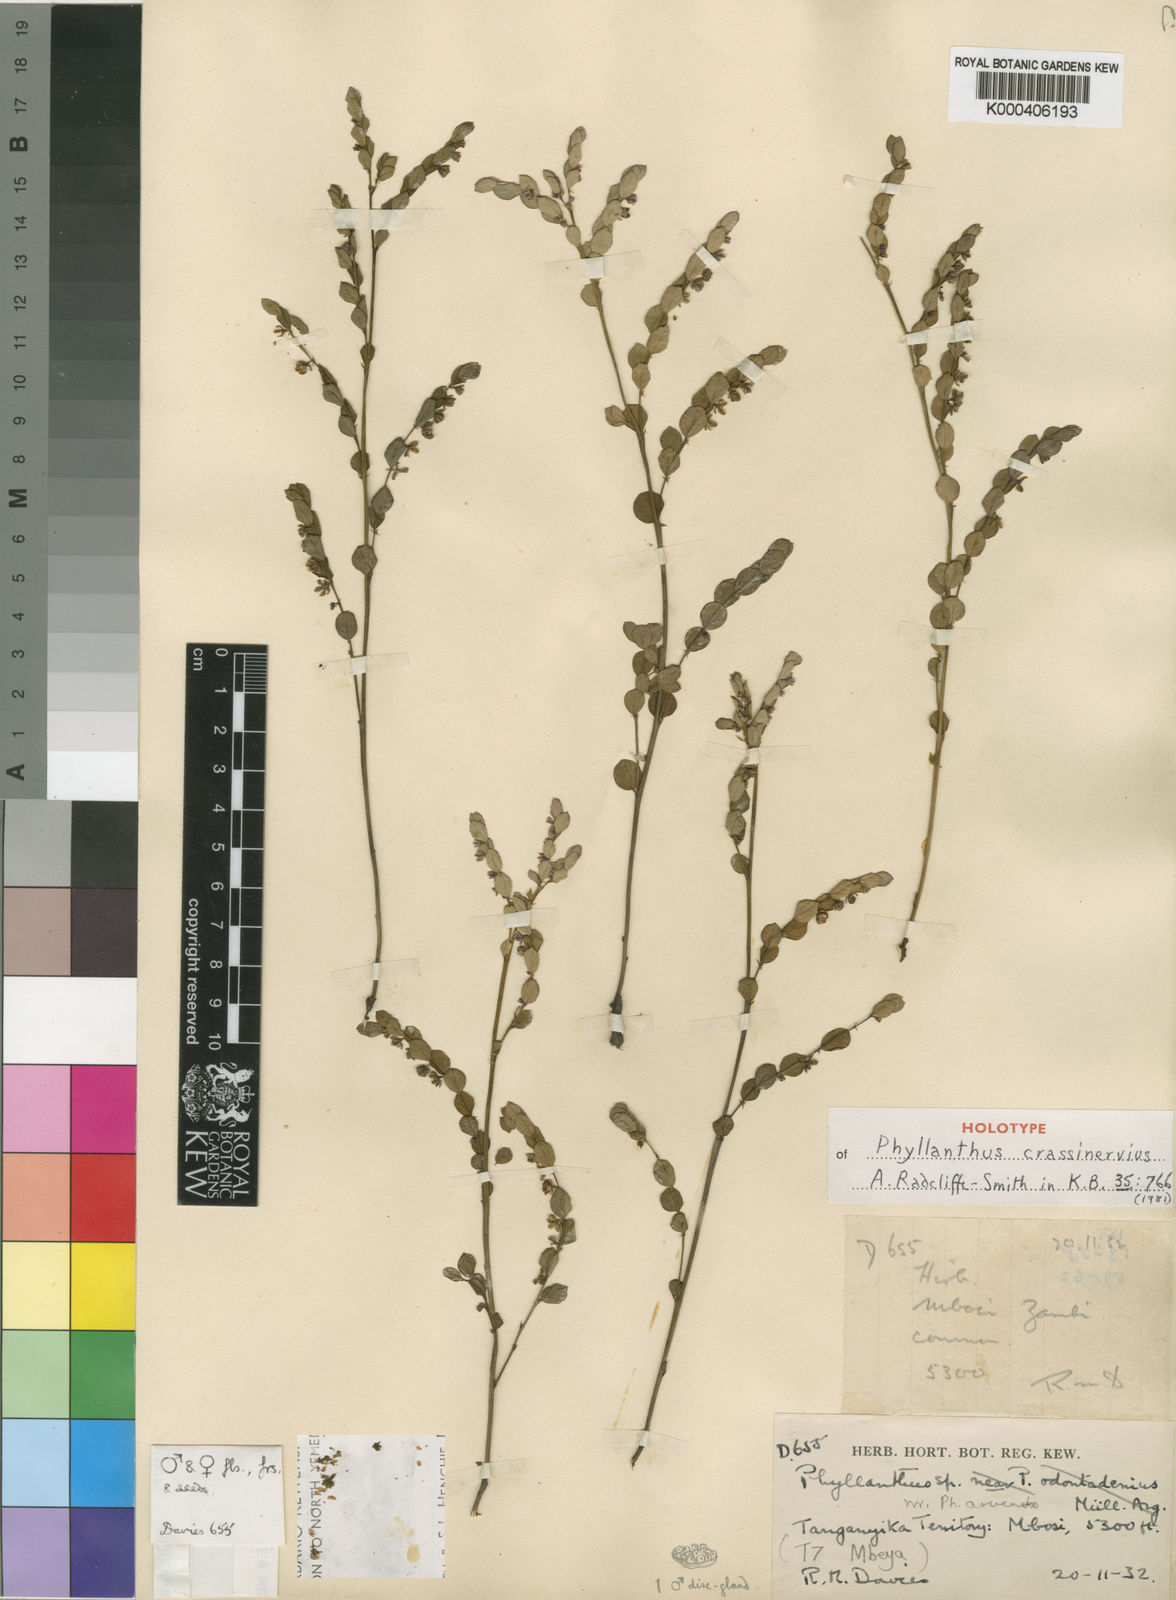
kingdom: Plantae
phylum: Tracheophyta
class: Magnoliopsida
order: Malpighiales
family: Phyllanthaceae
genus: Phyllanthus
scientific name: Phyllanthus crassinervius
